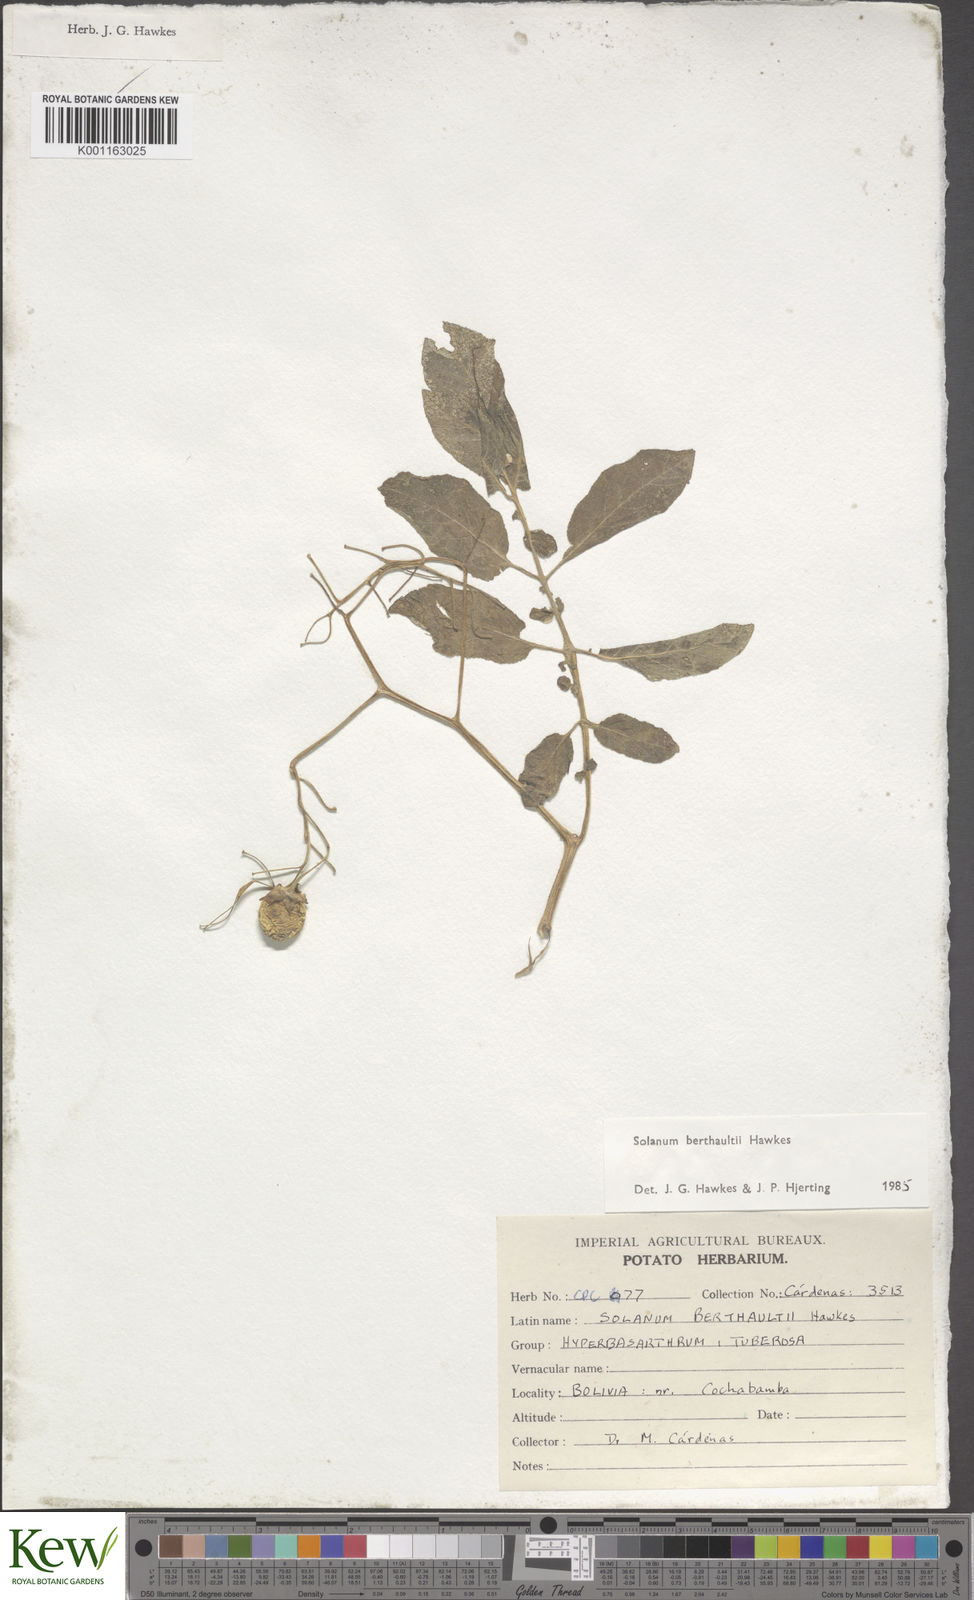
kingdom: Plantae
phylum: Tracheophyta
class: Magnoliopsida
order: Solanales
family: Solanaceae
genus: Solanum
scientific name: Solanum berthaultii
